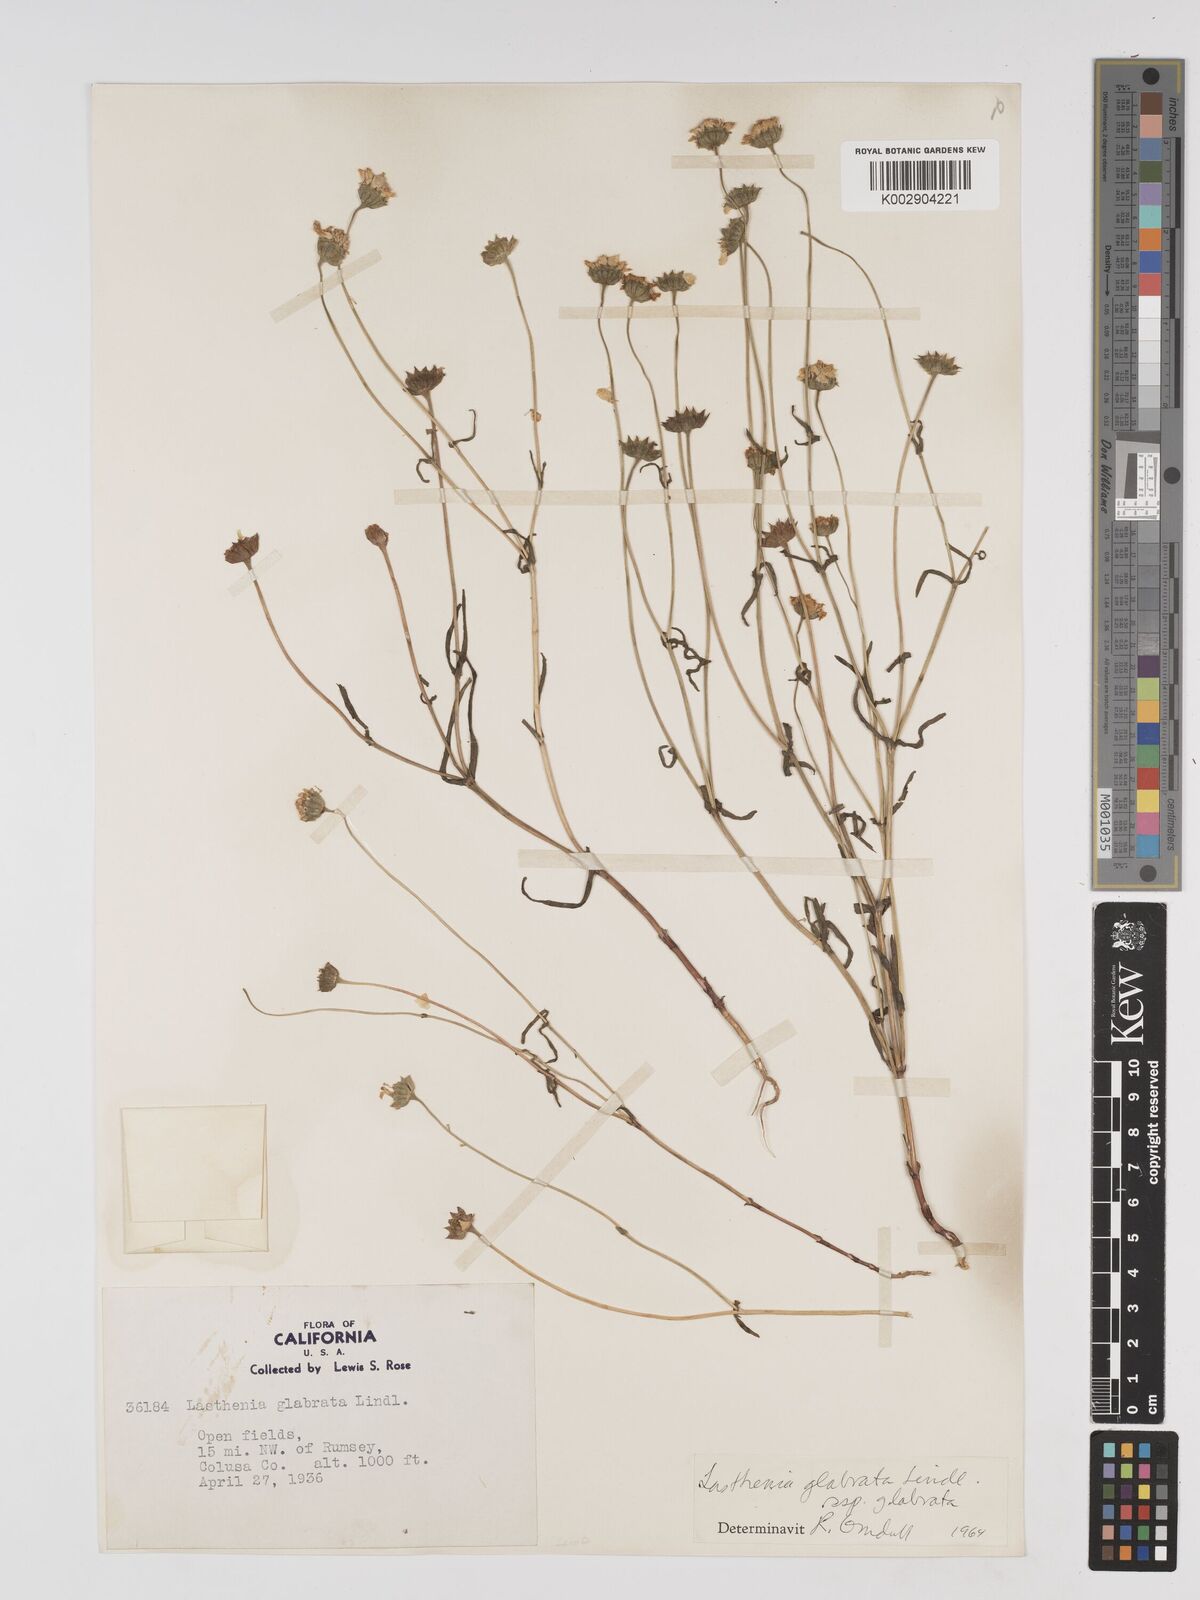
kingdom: Plantae
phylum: Tracheophyta
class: Magnoliopsida
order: Asterales
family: Asteraceae
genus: Lasthenia
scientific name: Lasthenia glabrata
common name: Yellow-ray lasthenia
